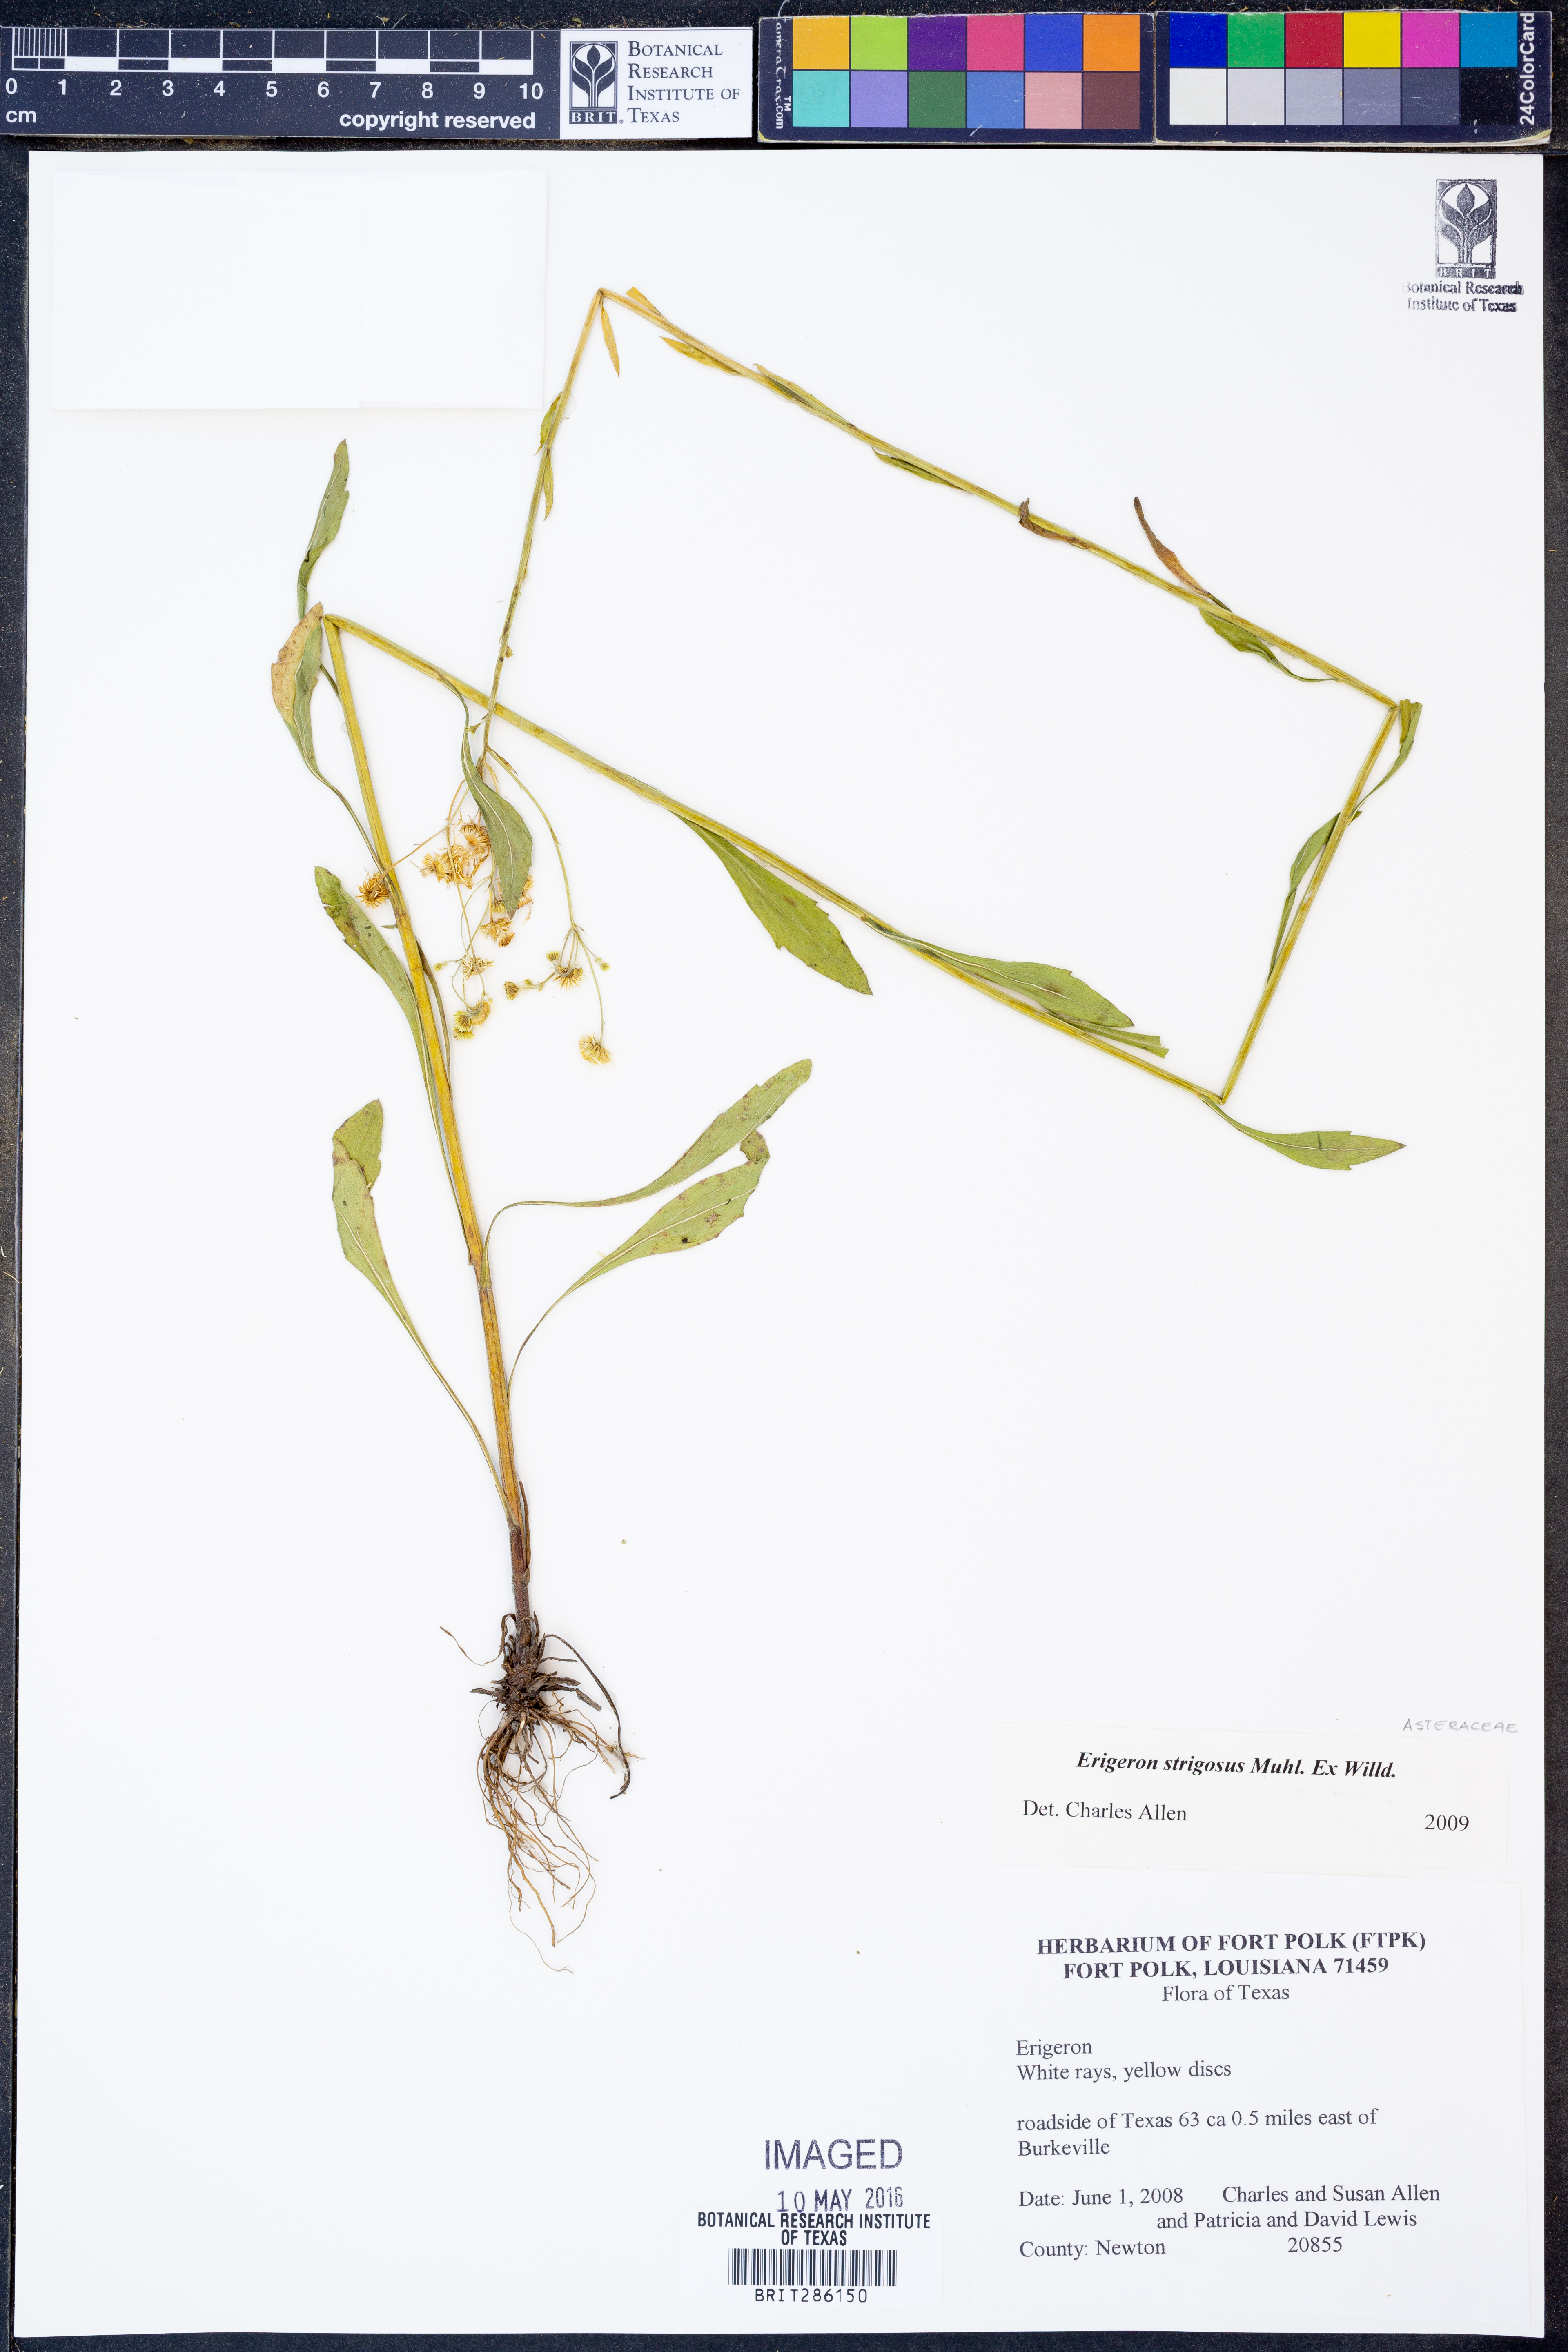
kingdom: Plantae
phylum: Tracheophyta
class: Magnoliopsida
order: Asterales
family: Asteraceae
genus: Erigeron
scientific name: Erigeron strigosus
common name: Common eastern fleabane
